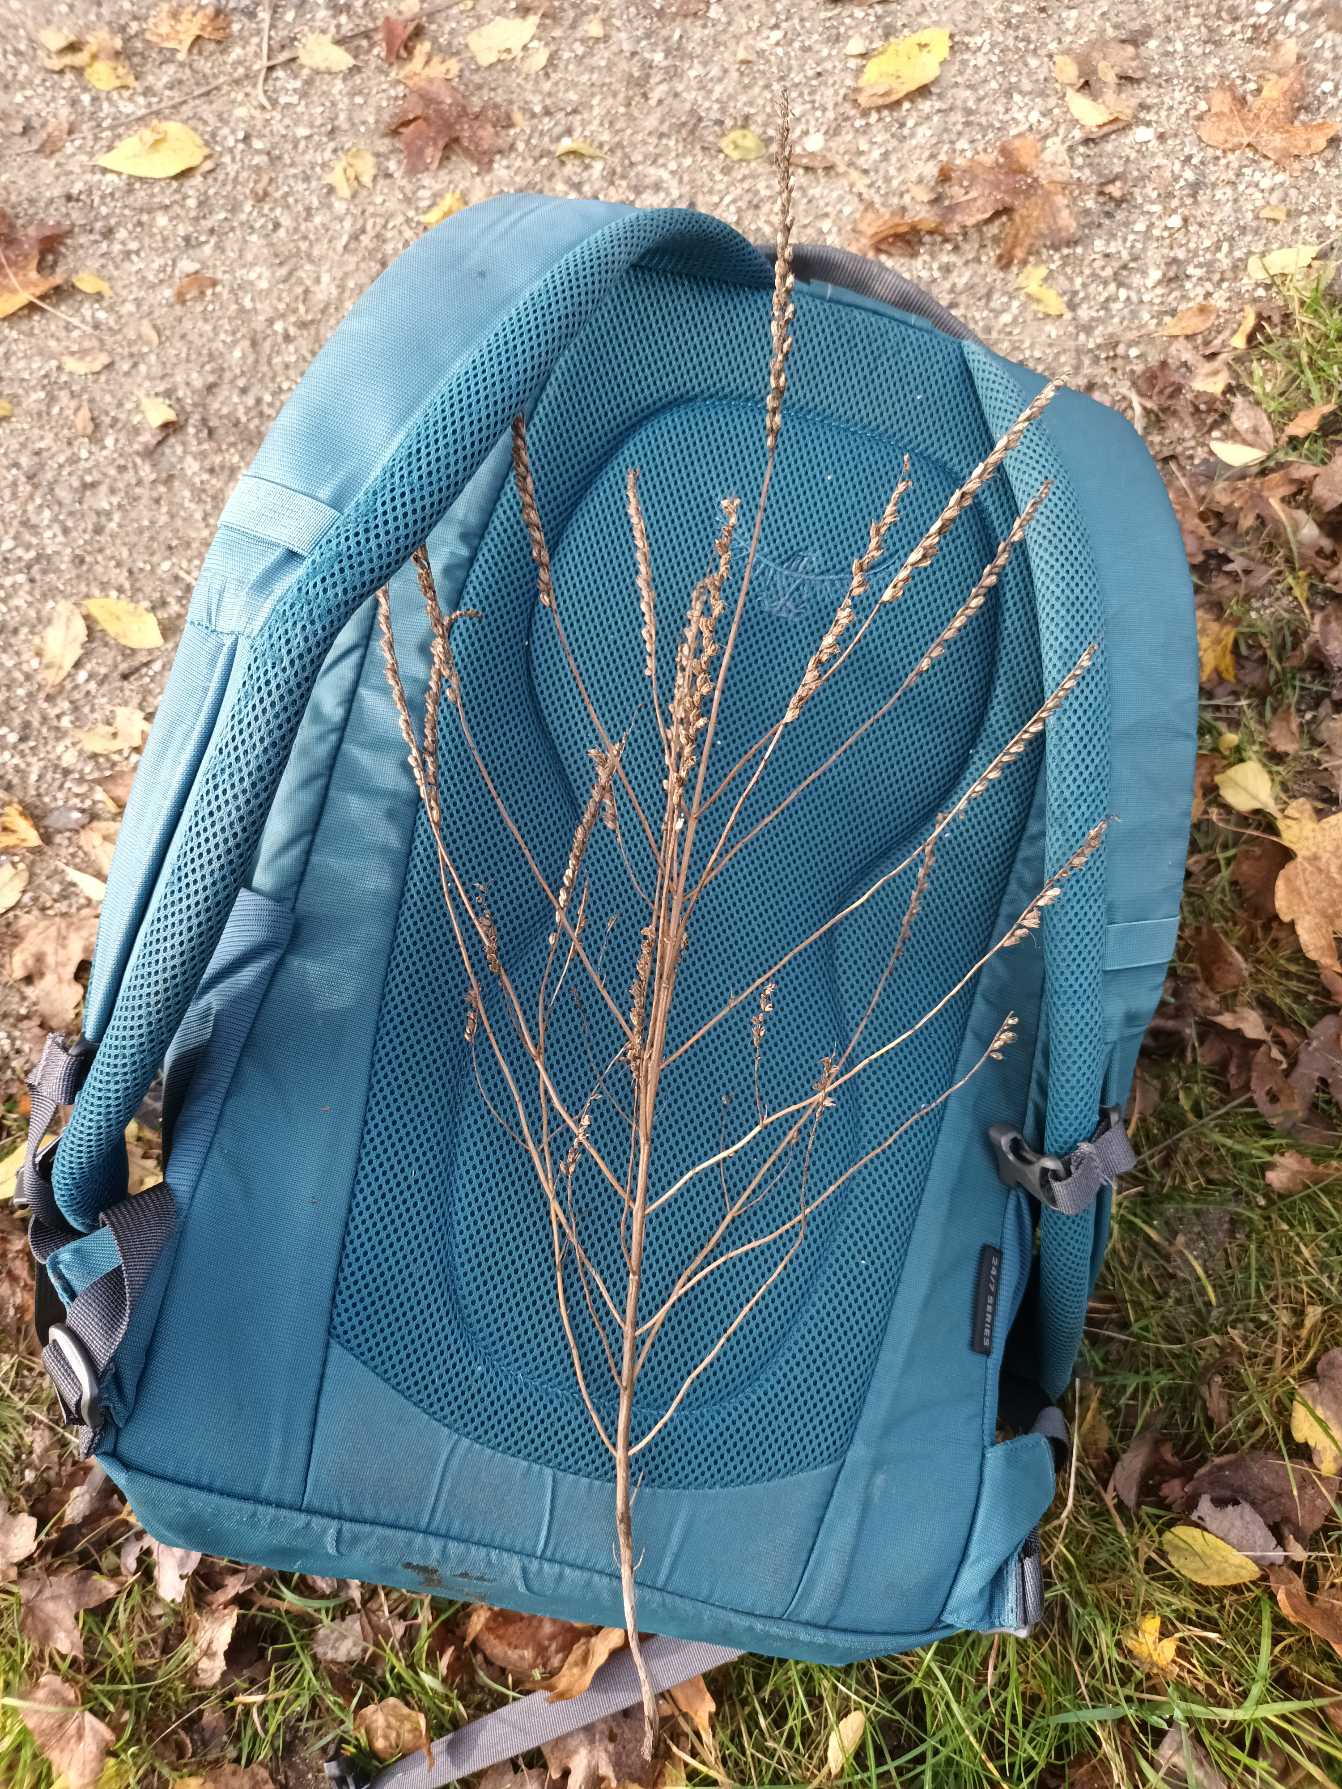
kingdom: Plantae
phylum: Tracheophyta
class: Magnoliopsida
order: Lamiales
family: Orobanchaceae
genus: Odontites
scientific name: Odontites vulgaris
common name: Høst-rødtop
